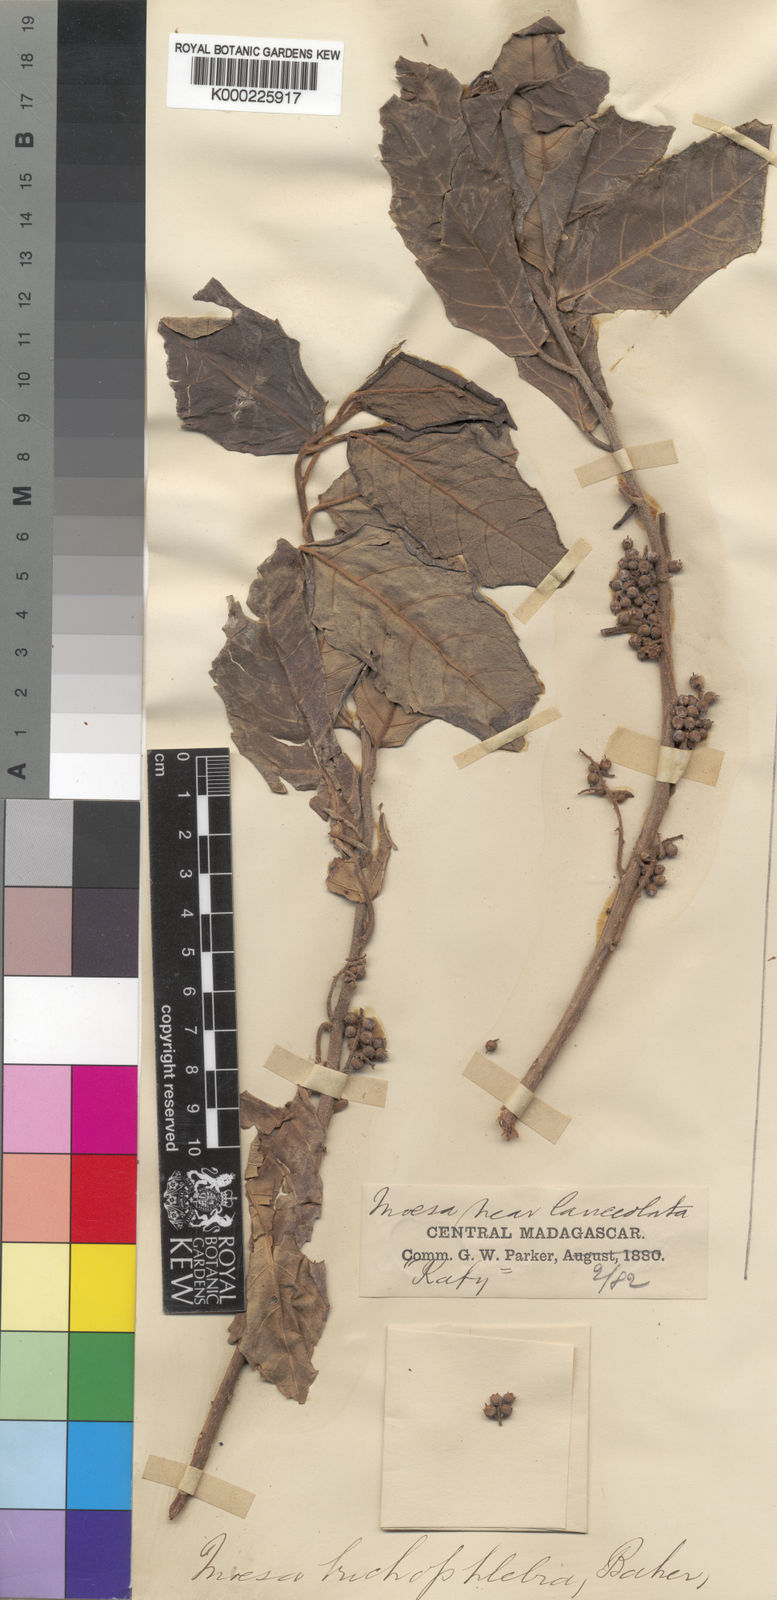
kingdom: Plantae
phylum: Tracheophyta
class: Magnoliopsida
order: Ericales
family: Primulaceae
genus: Maesa
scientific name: Maesa lanceolata
